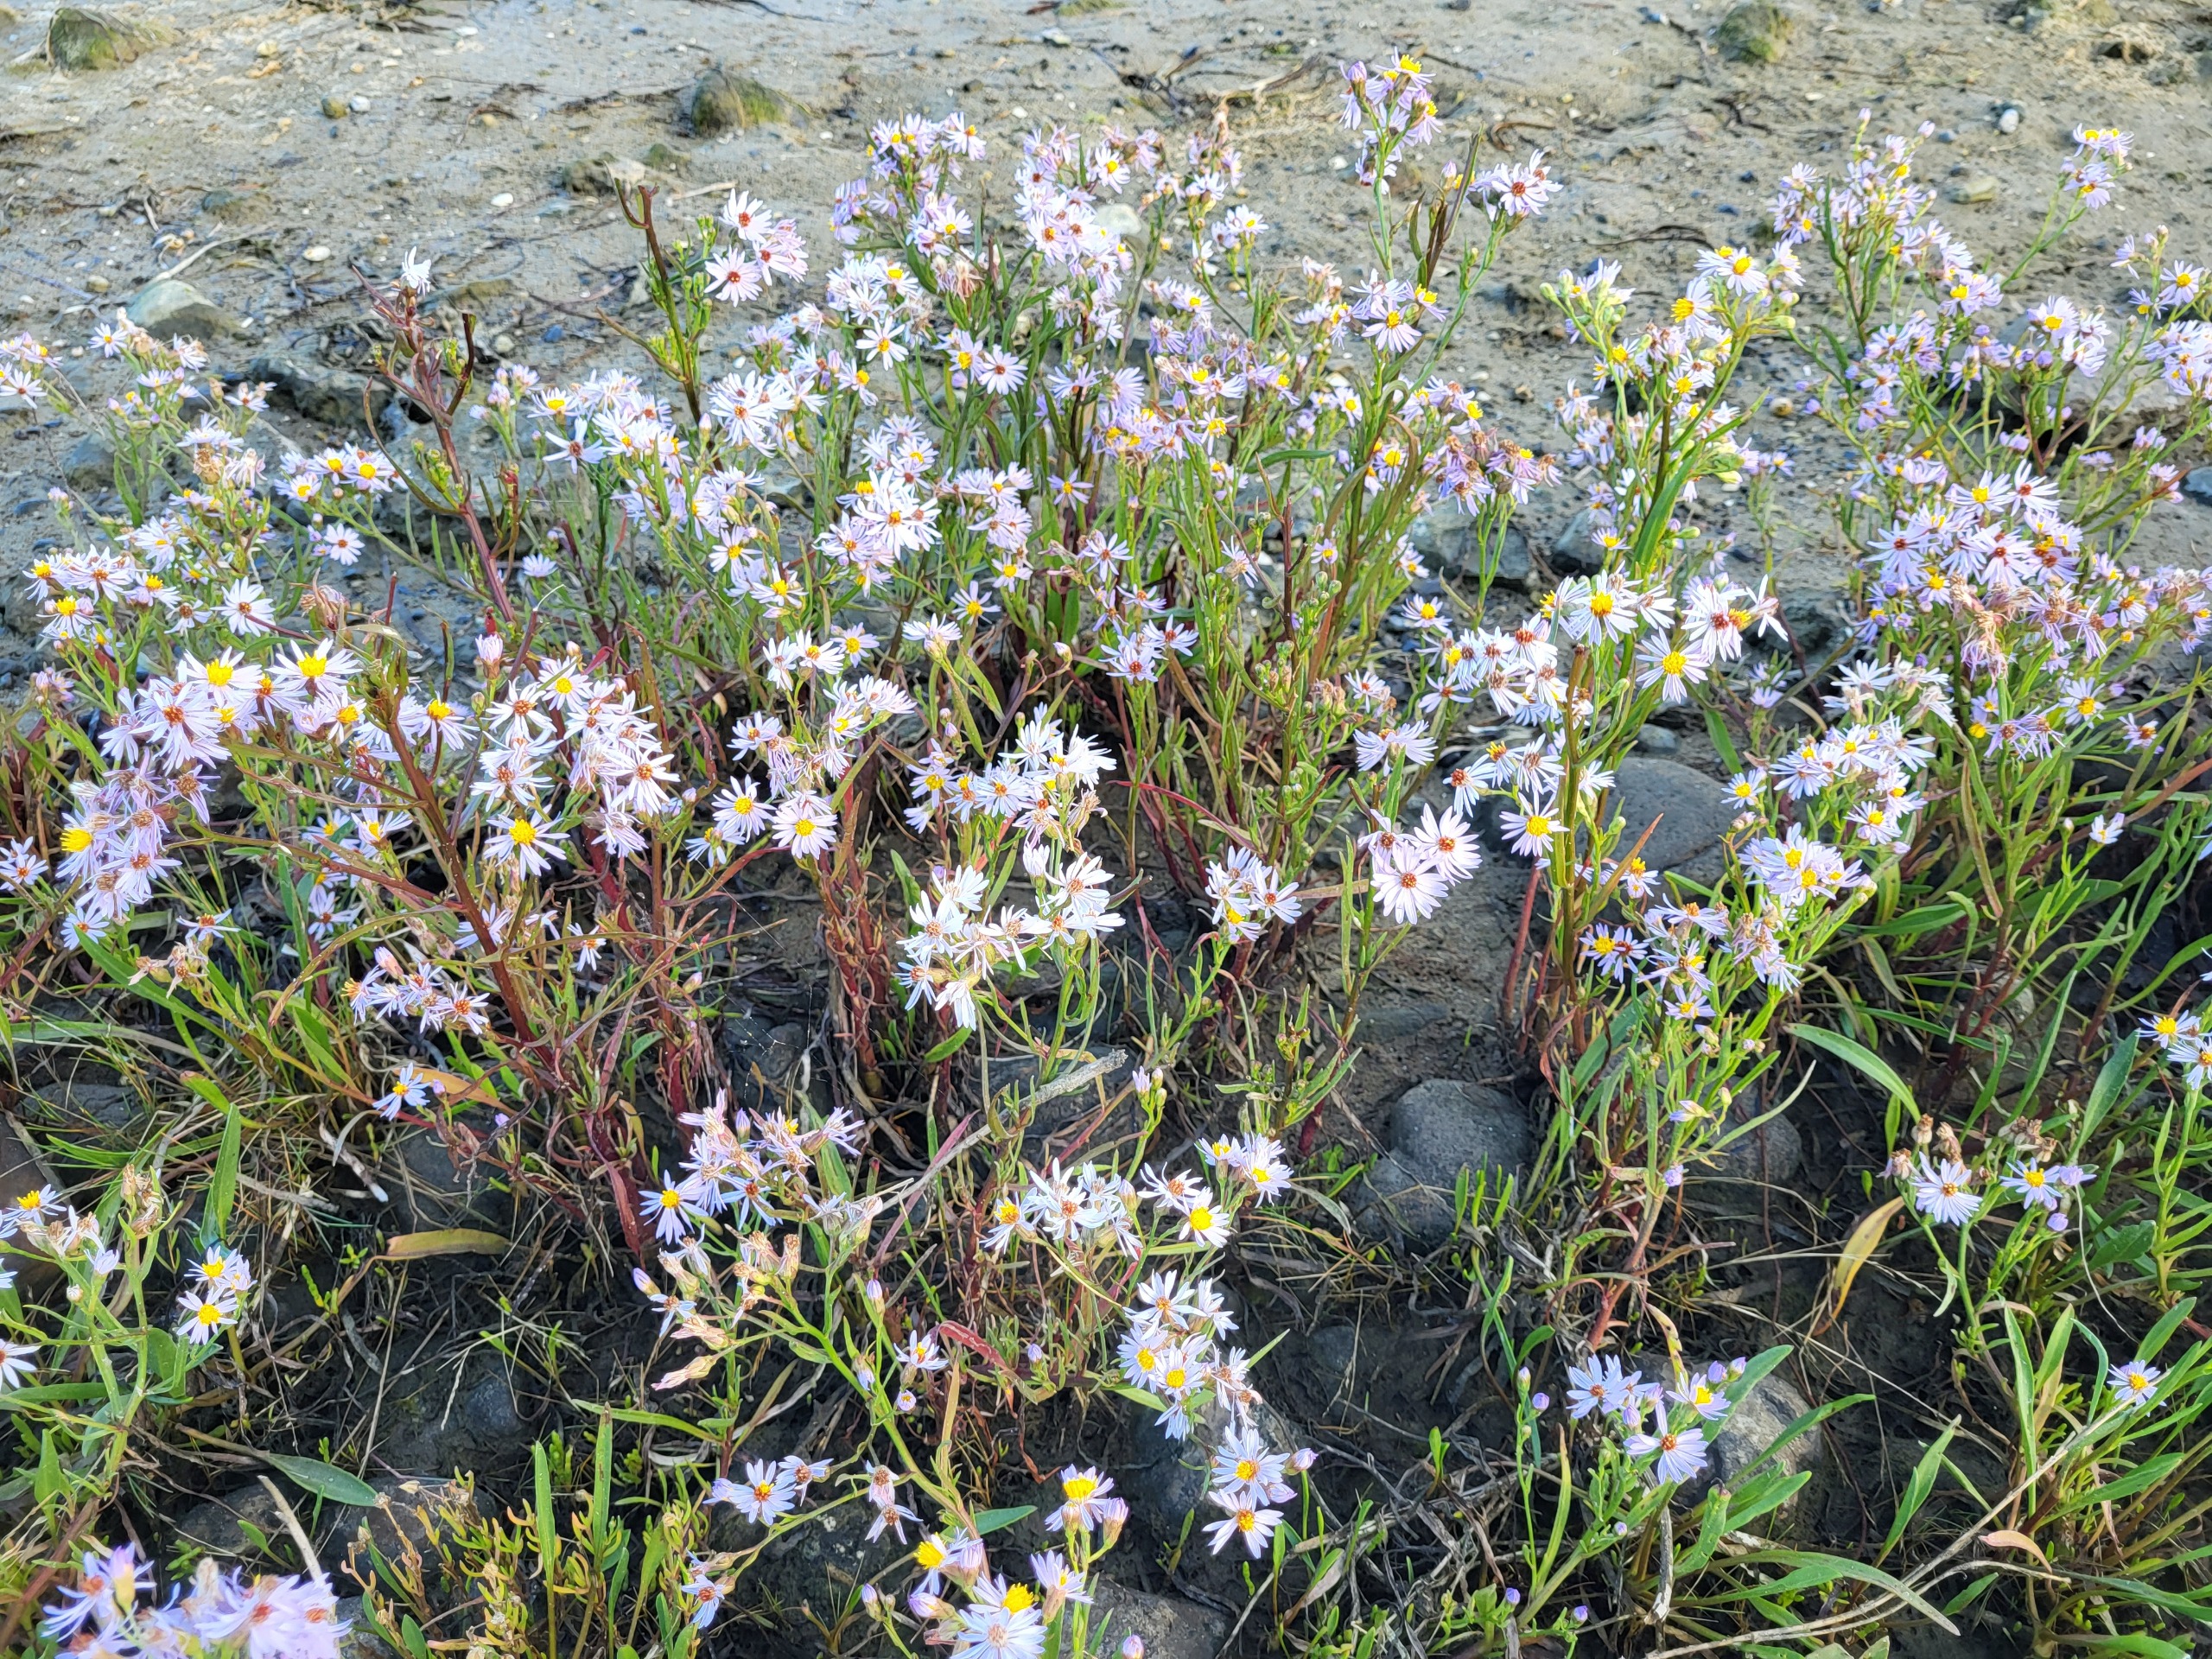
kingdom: Plantae
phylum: Tracheophyta
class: Magnoliopsida
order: Asterales
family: Asteraceae
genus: Tripolium
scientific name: Tripolium pannonicum
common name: Strandasters
